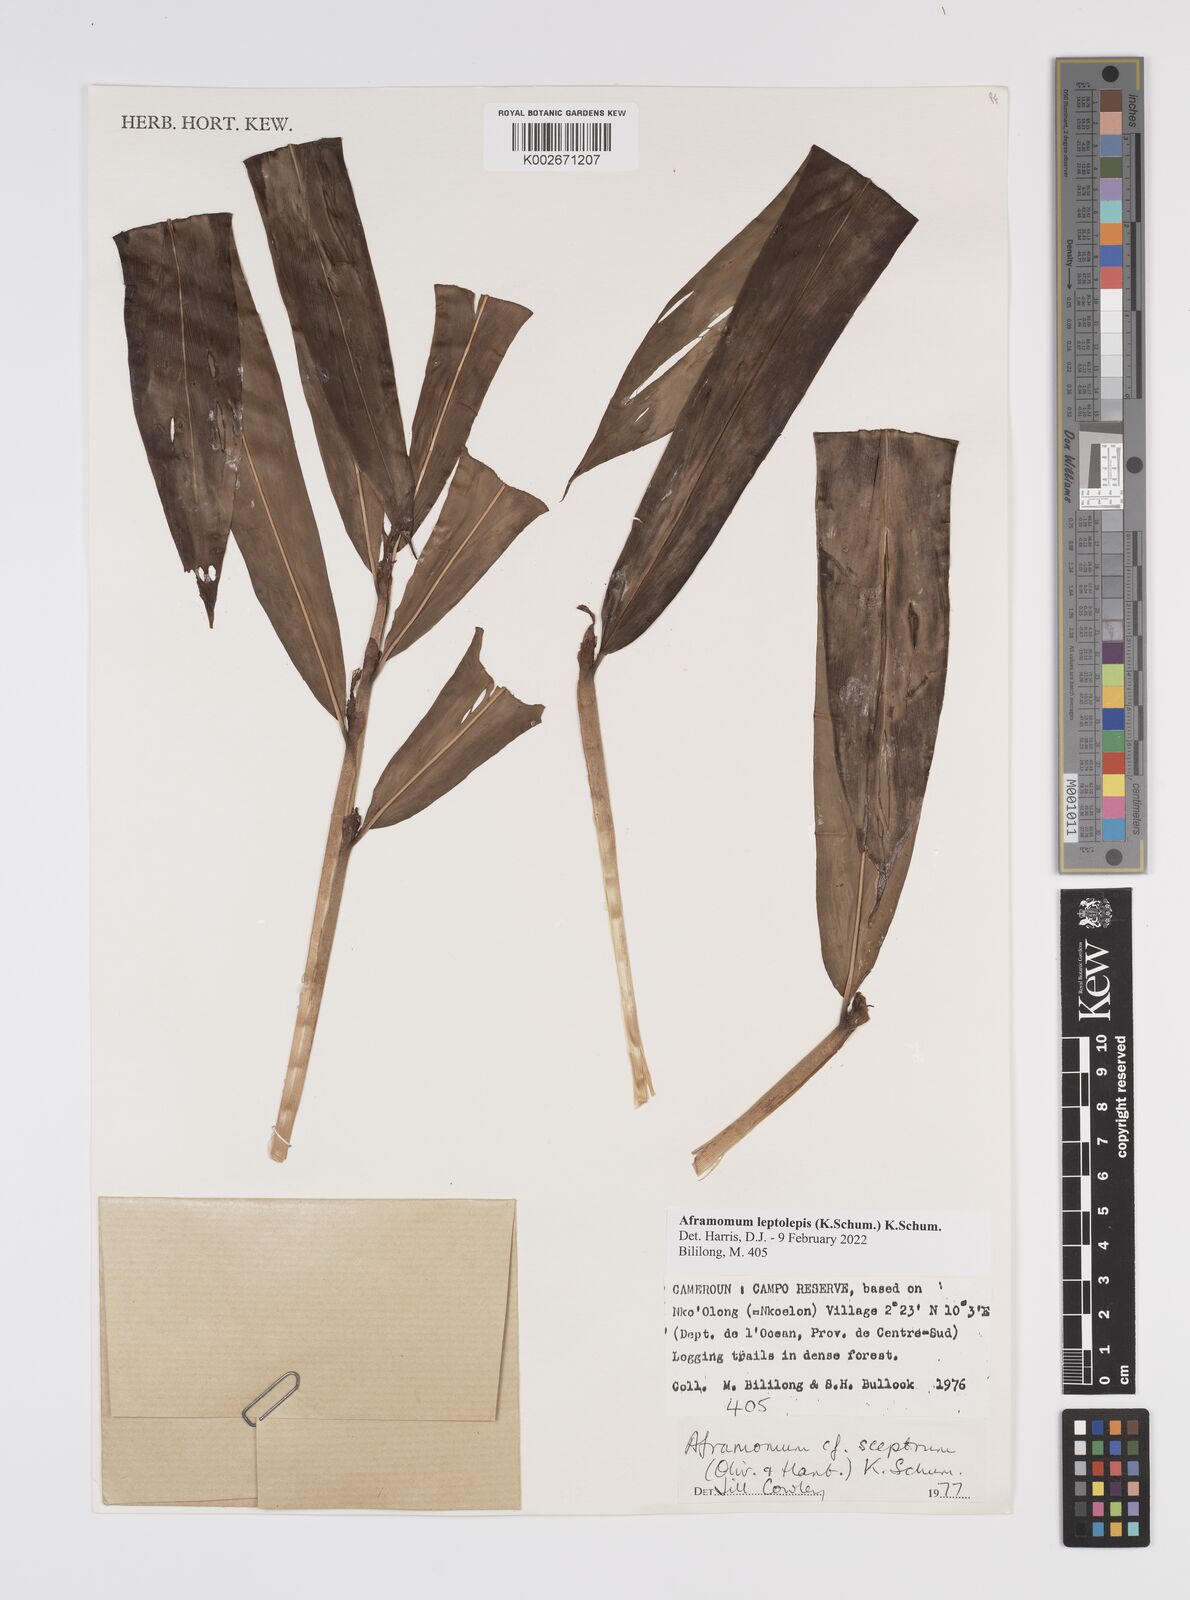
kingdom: Plantae
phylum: Tracheophyta
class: Liliopsida
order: Zingiberales
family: Zingiberaceae
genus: Aframomum
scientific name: Aframomum leptolepis
